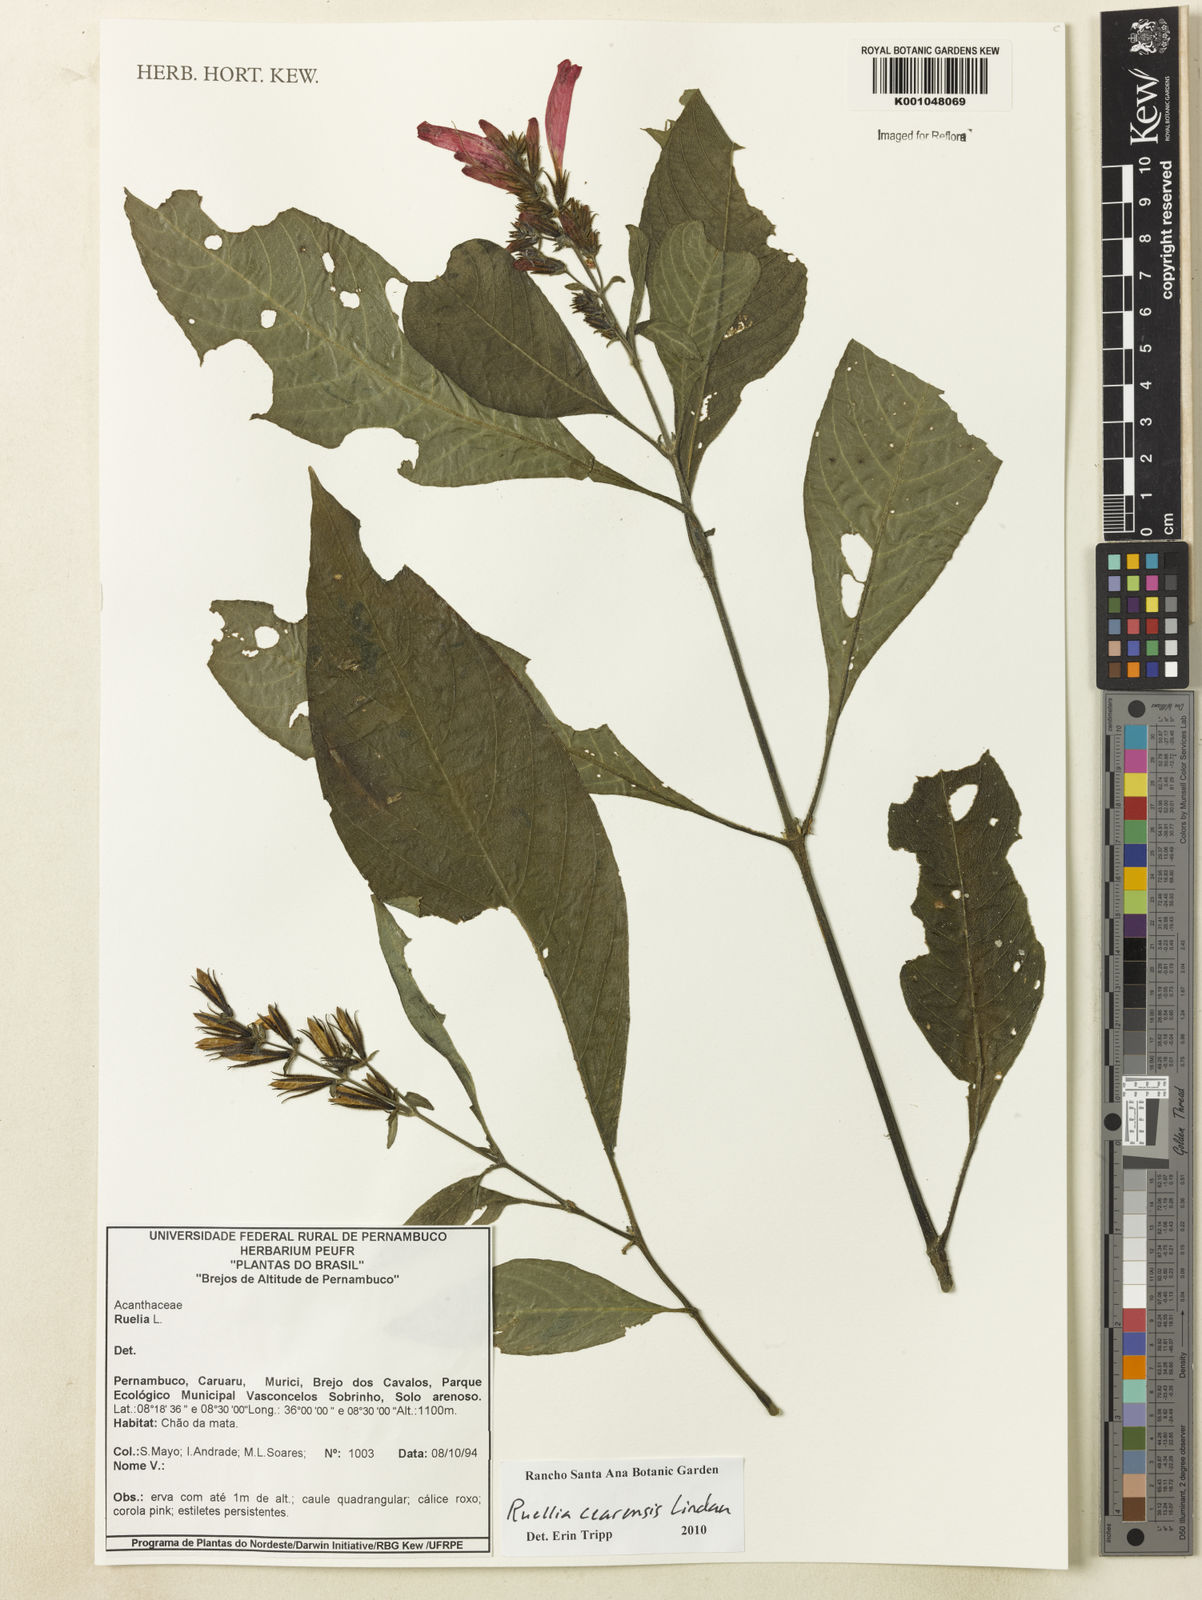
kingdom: Plantae
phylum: Tracheophyta
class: Magnoliopsida
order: Lamiales
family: Acanthaceae
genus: Ruellia
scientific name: Ruellia cearensis
